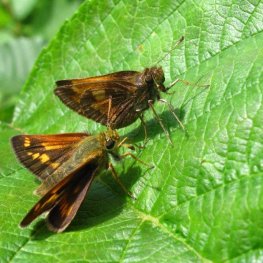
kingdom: Animalia
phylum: Arthropoda
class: Insecta
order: Lepidoptera
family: Hesperiidae
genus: Polites
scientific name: Polites
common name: Long Dash Skipper
